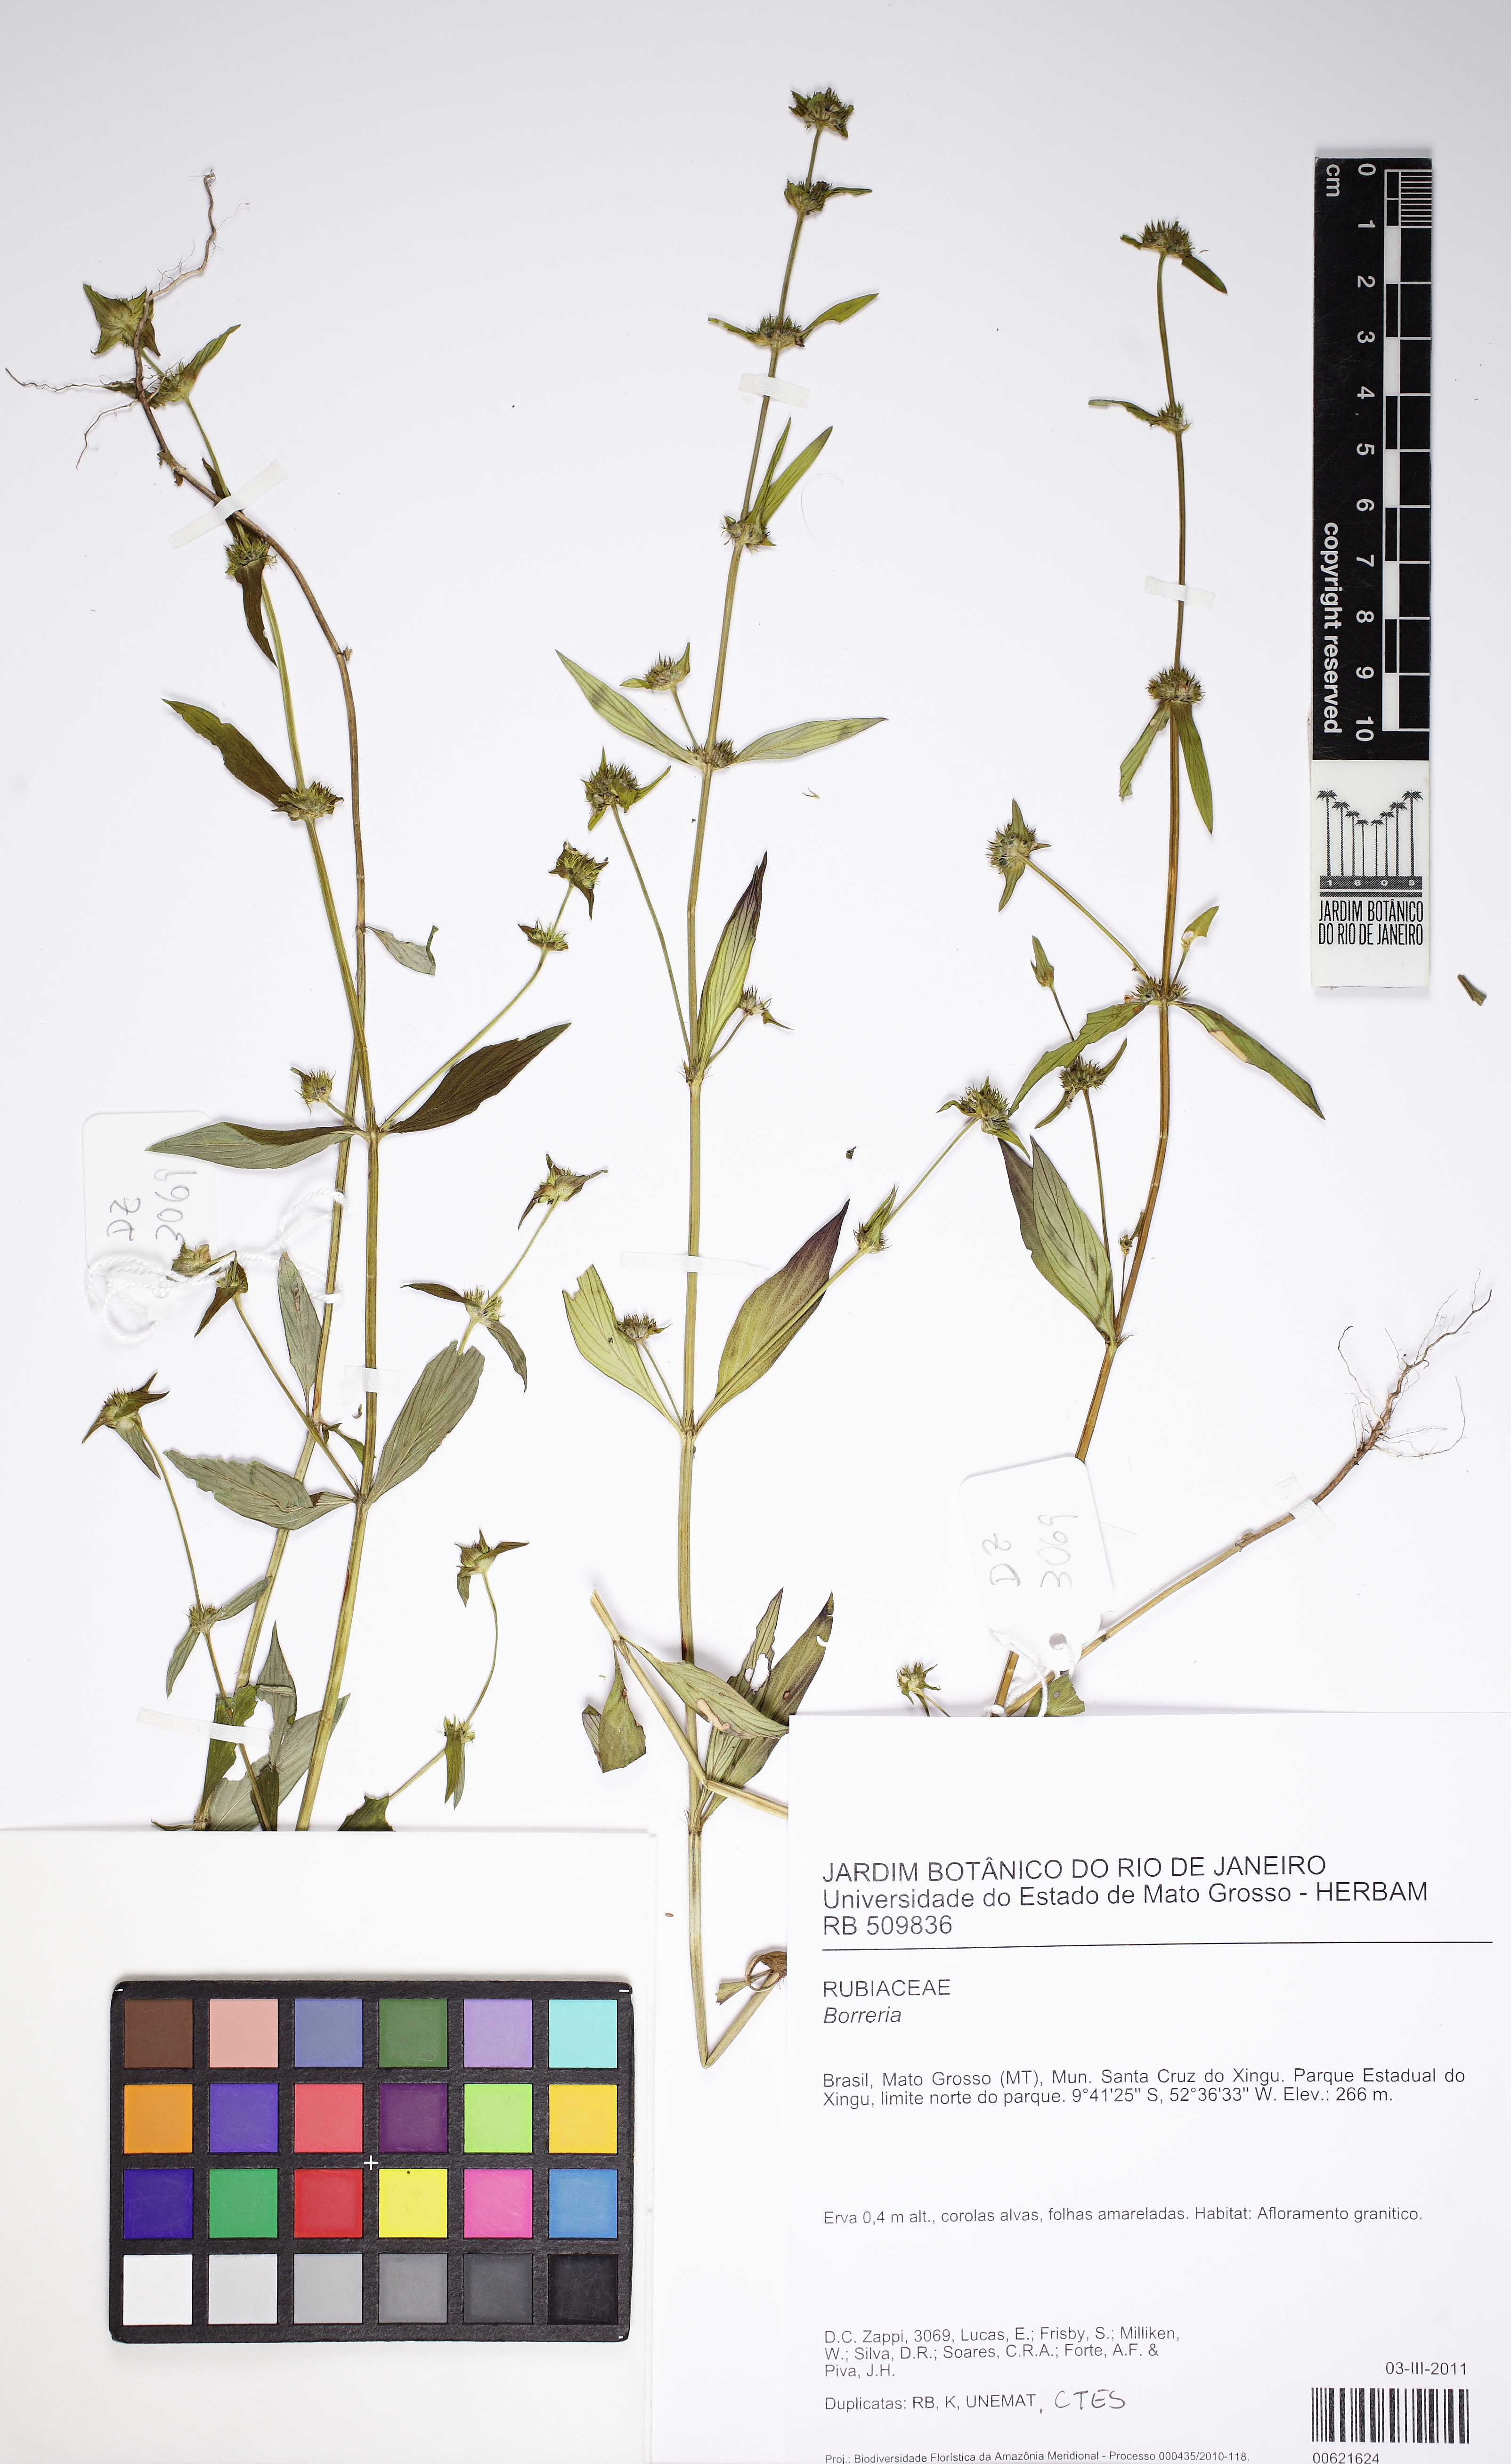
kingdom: Plantae
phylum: Tracheophyta
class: Magnoliopsida
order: Gentianales
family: Rubiaceae
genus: Spermacoce
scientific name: Spermacoce semiamplexicaulis
